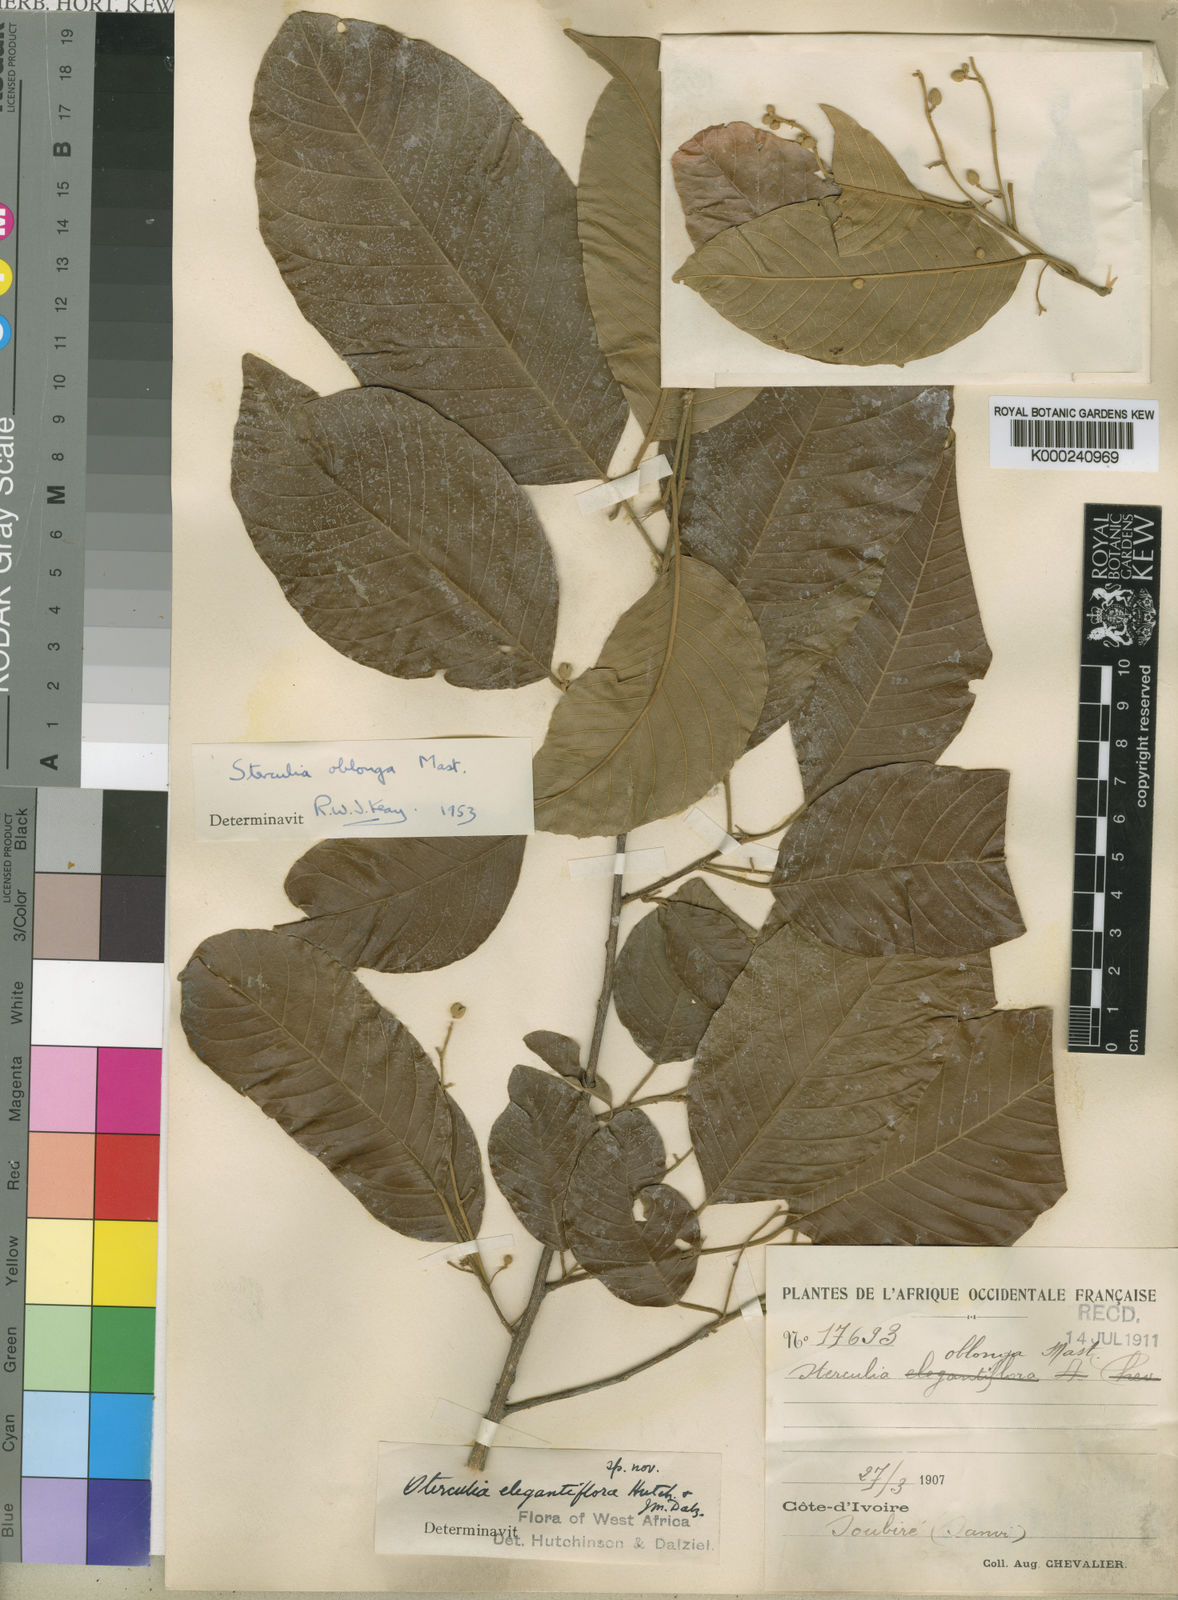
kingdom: Plantae
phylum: Tracheophyta
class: Magnoliopsida
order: Malvales
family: Malvaceae
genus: Sterculia
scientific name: Sterculia oblonga
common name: Yellow sterculia
